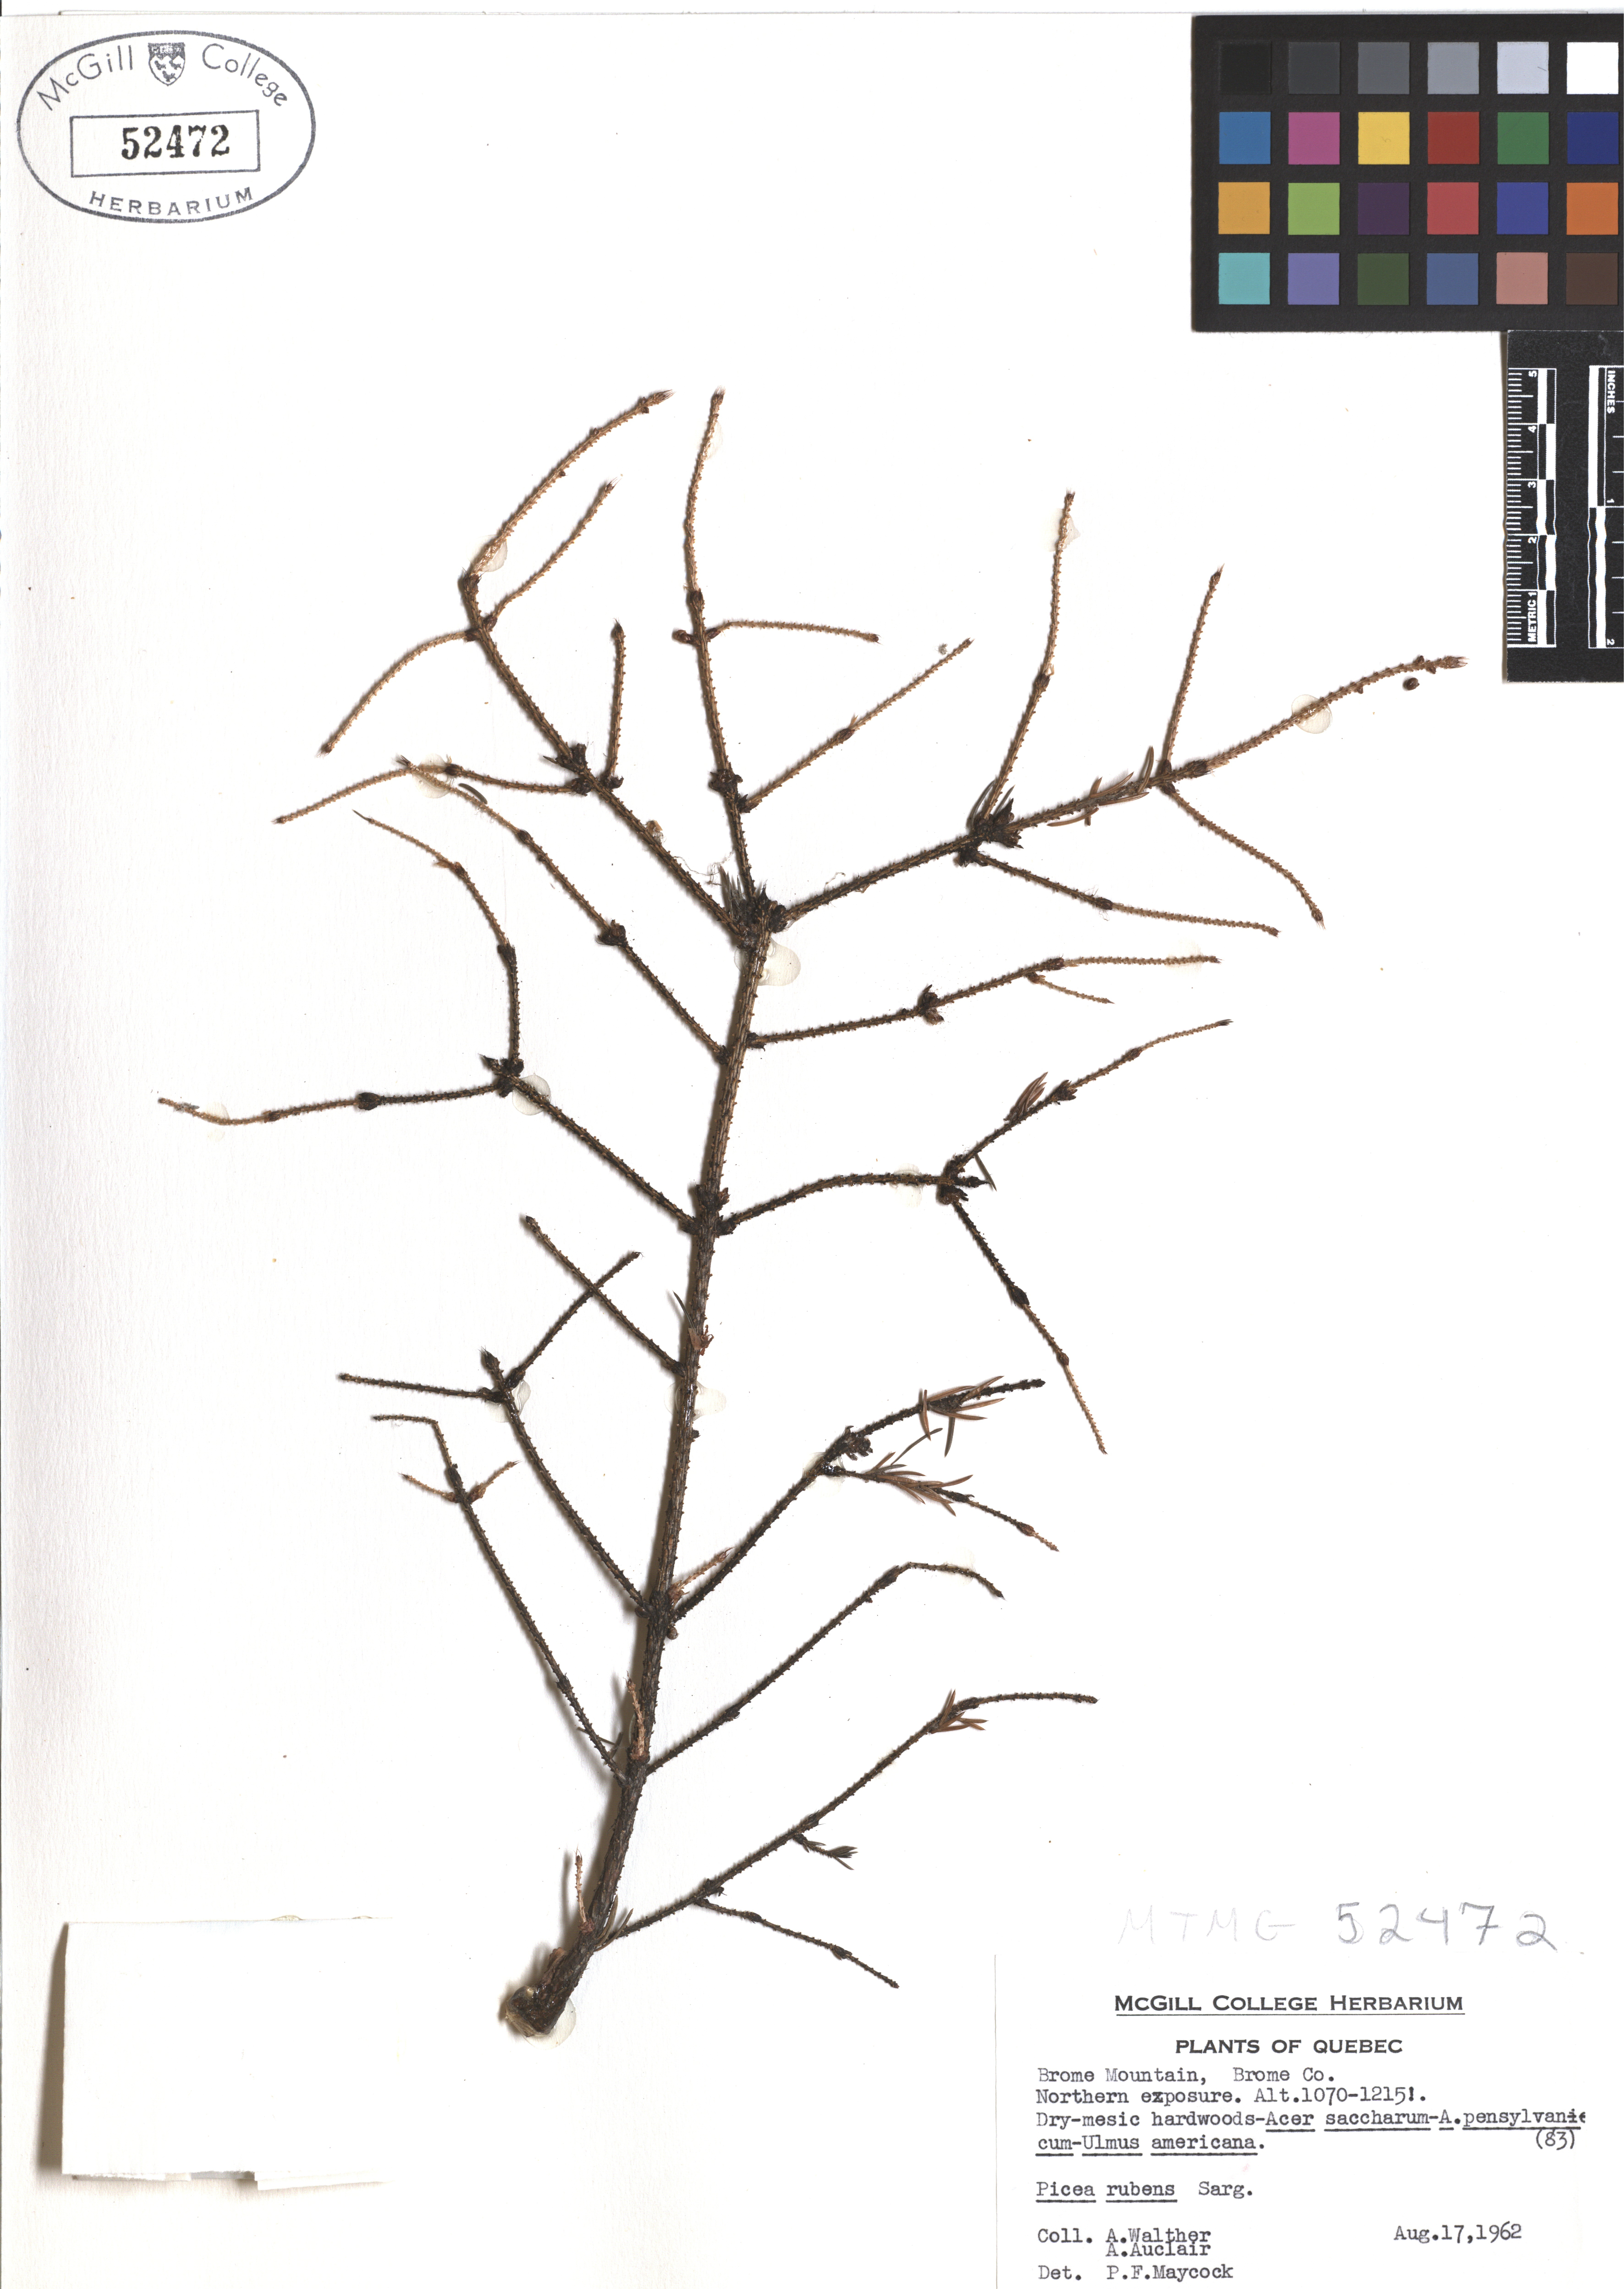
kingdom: Plantae
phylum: Tracheophyta
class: Pinopsida
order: Pinales
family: Pinaceae
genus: Picea
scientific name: Picea rubens
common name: Red spruce
